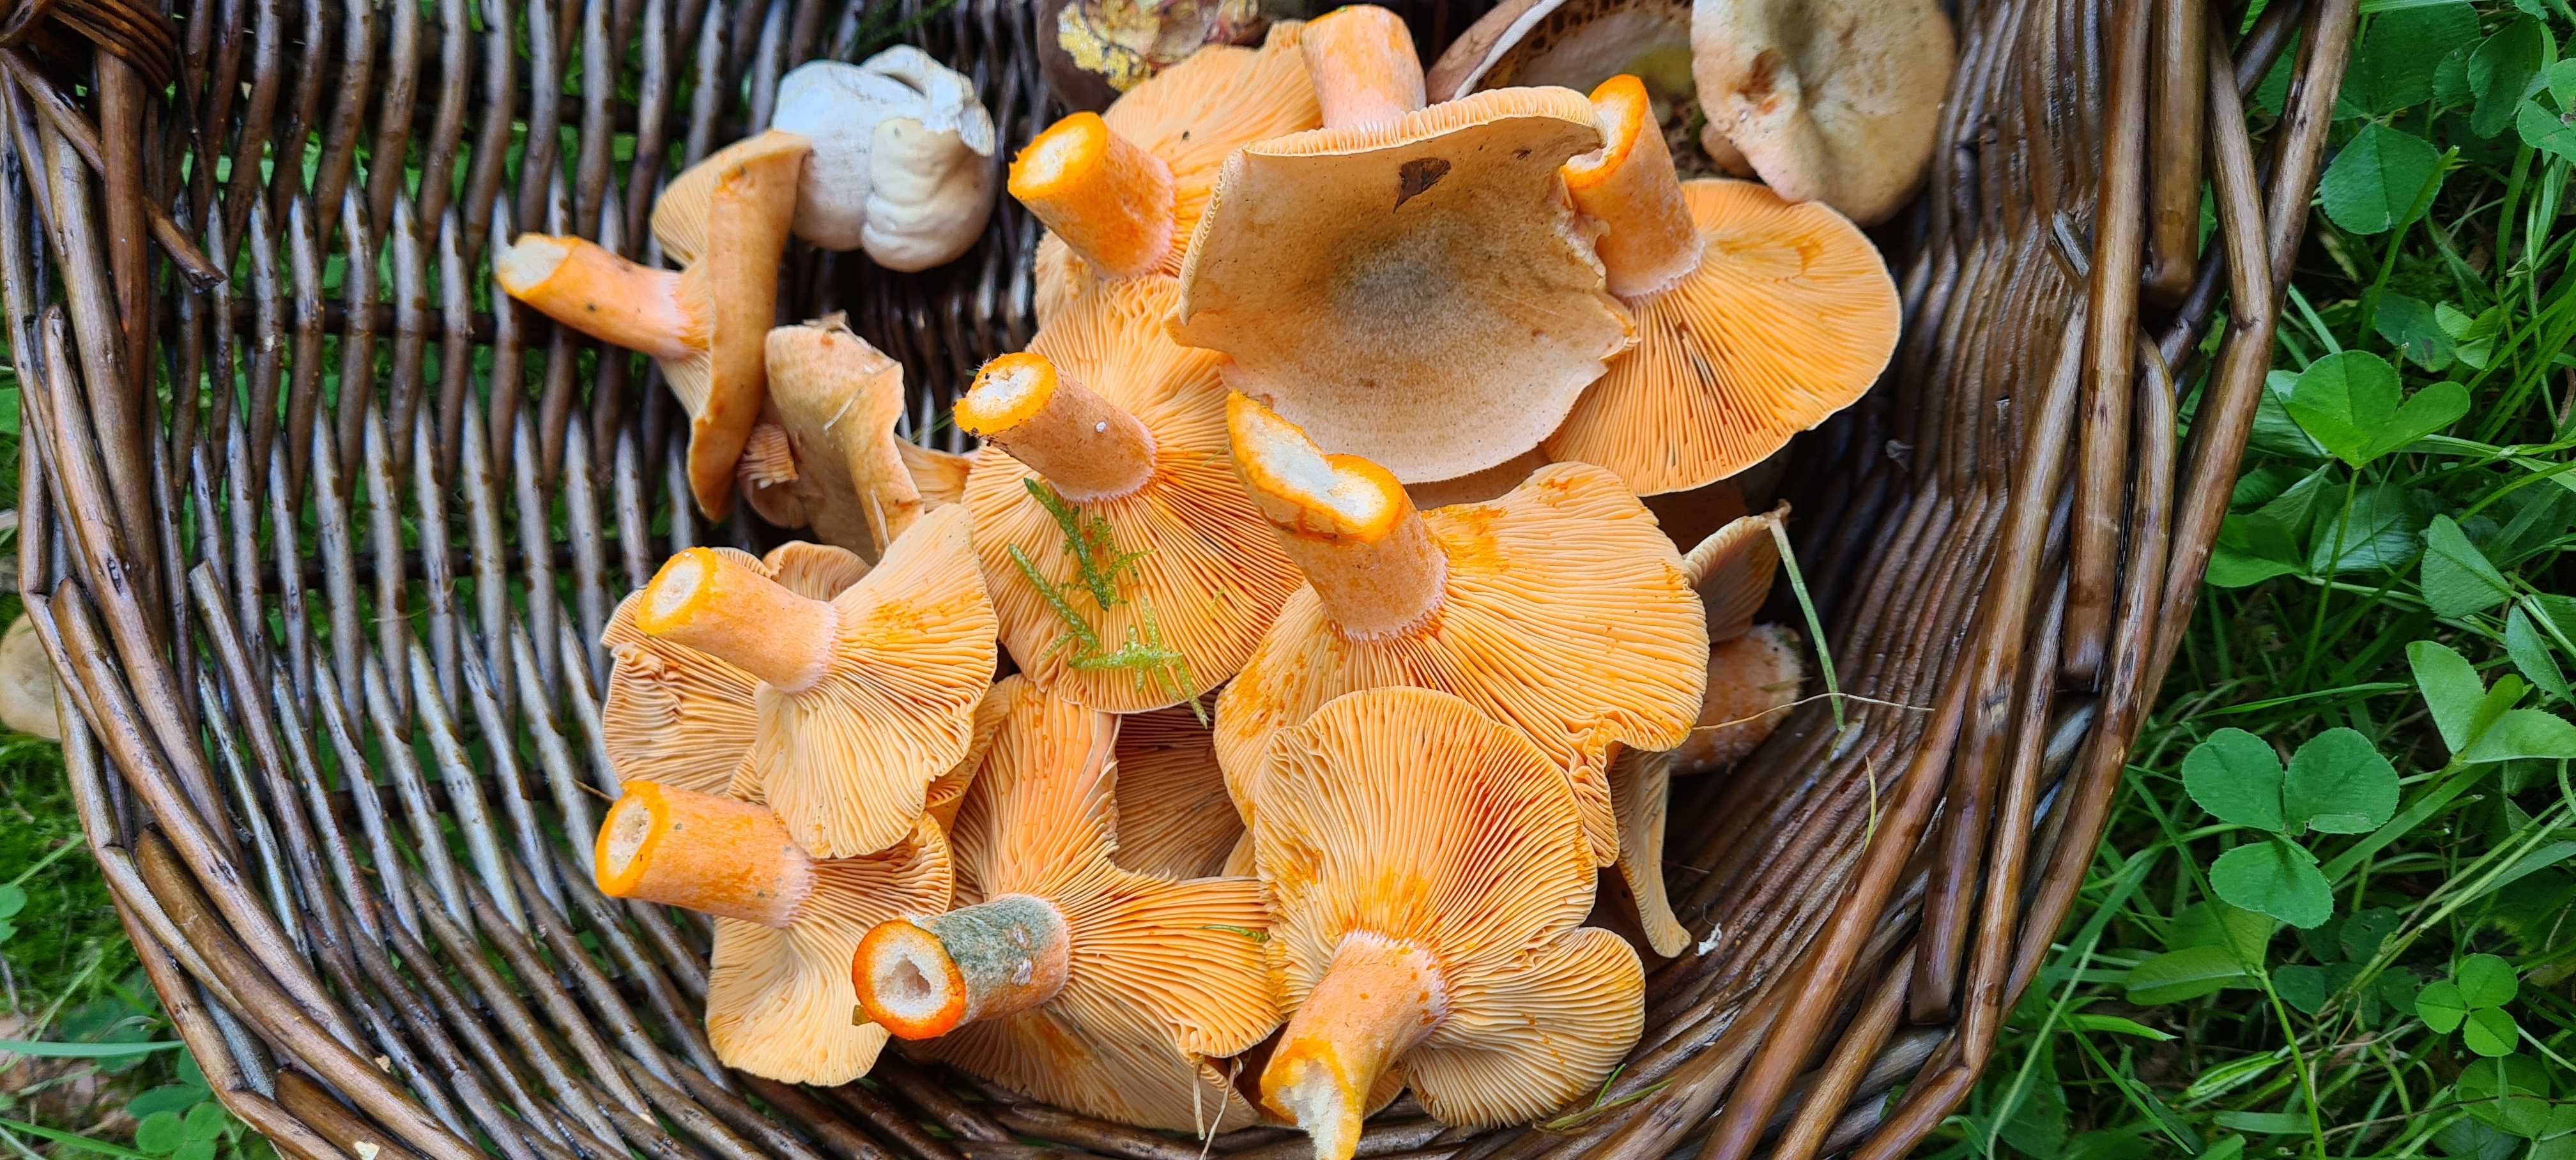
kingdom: Fungi
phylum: Basidiomycota
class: Agaricomycetes
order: Russulales
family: Russulaceae
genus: Lactarius
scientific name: Lactarius deterrimus
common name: gran-mælkehat
